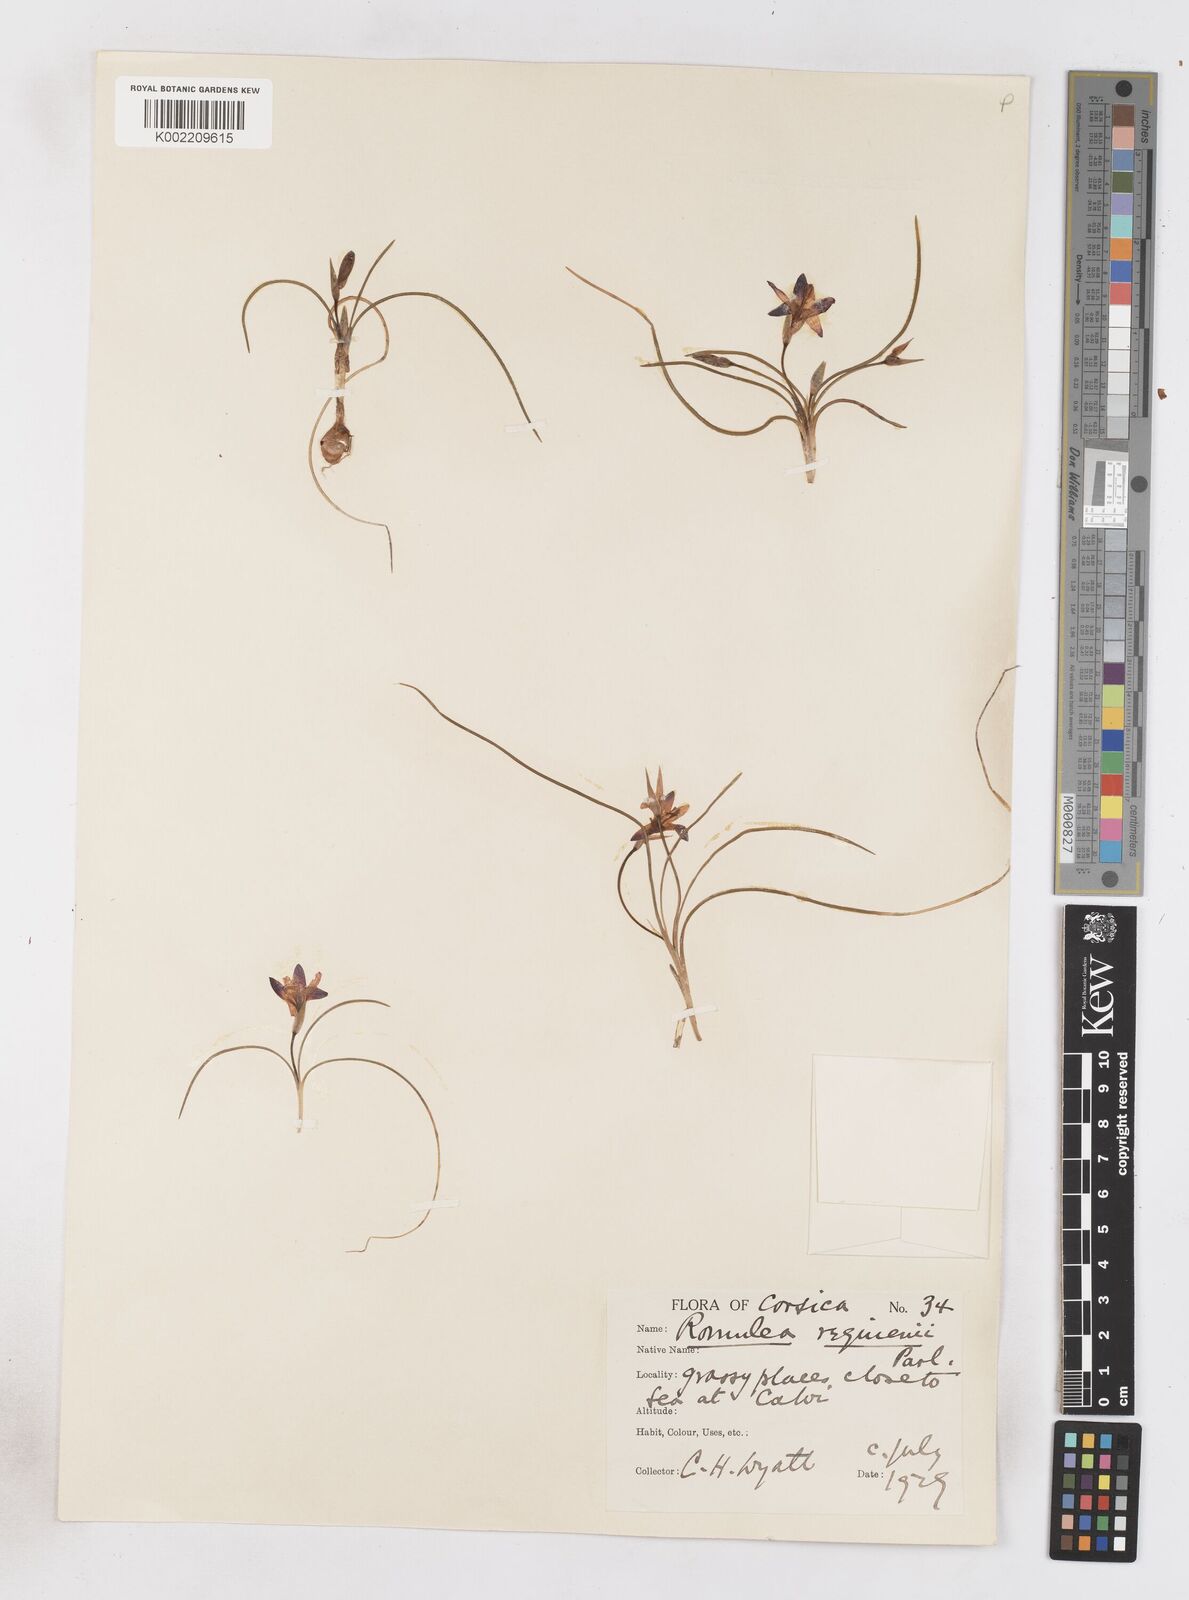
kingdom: Plantae
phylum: Tracheophyta
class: Liliopsida
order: Asparagales
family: Iridaceae
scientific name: Iridaceae
